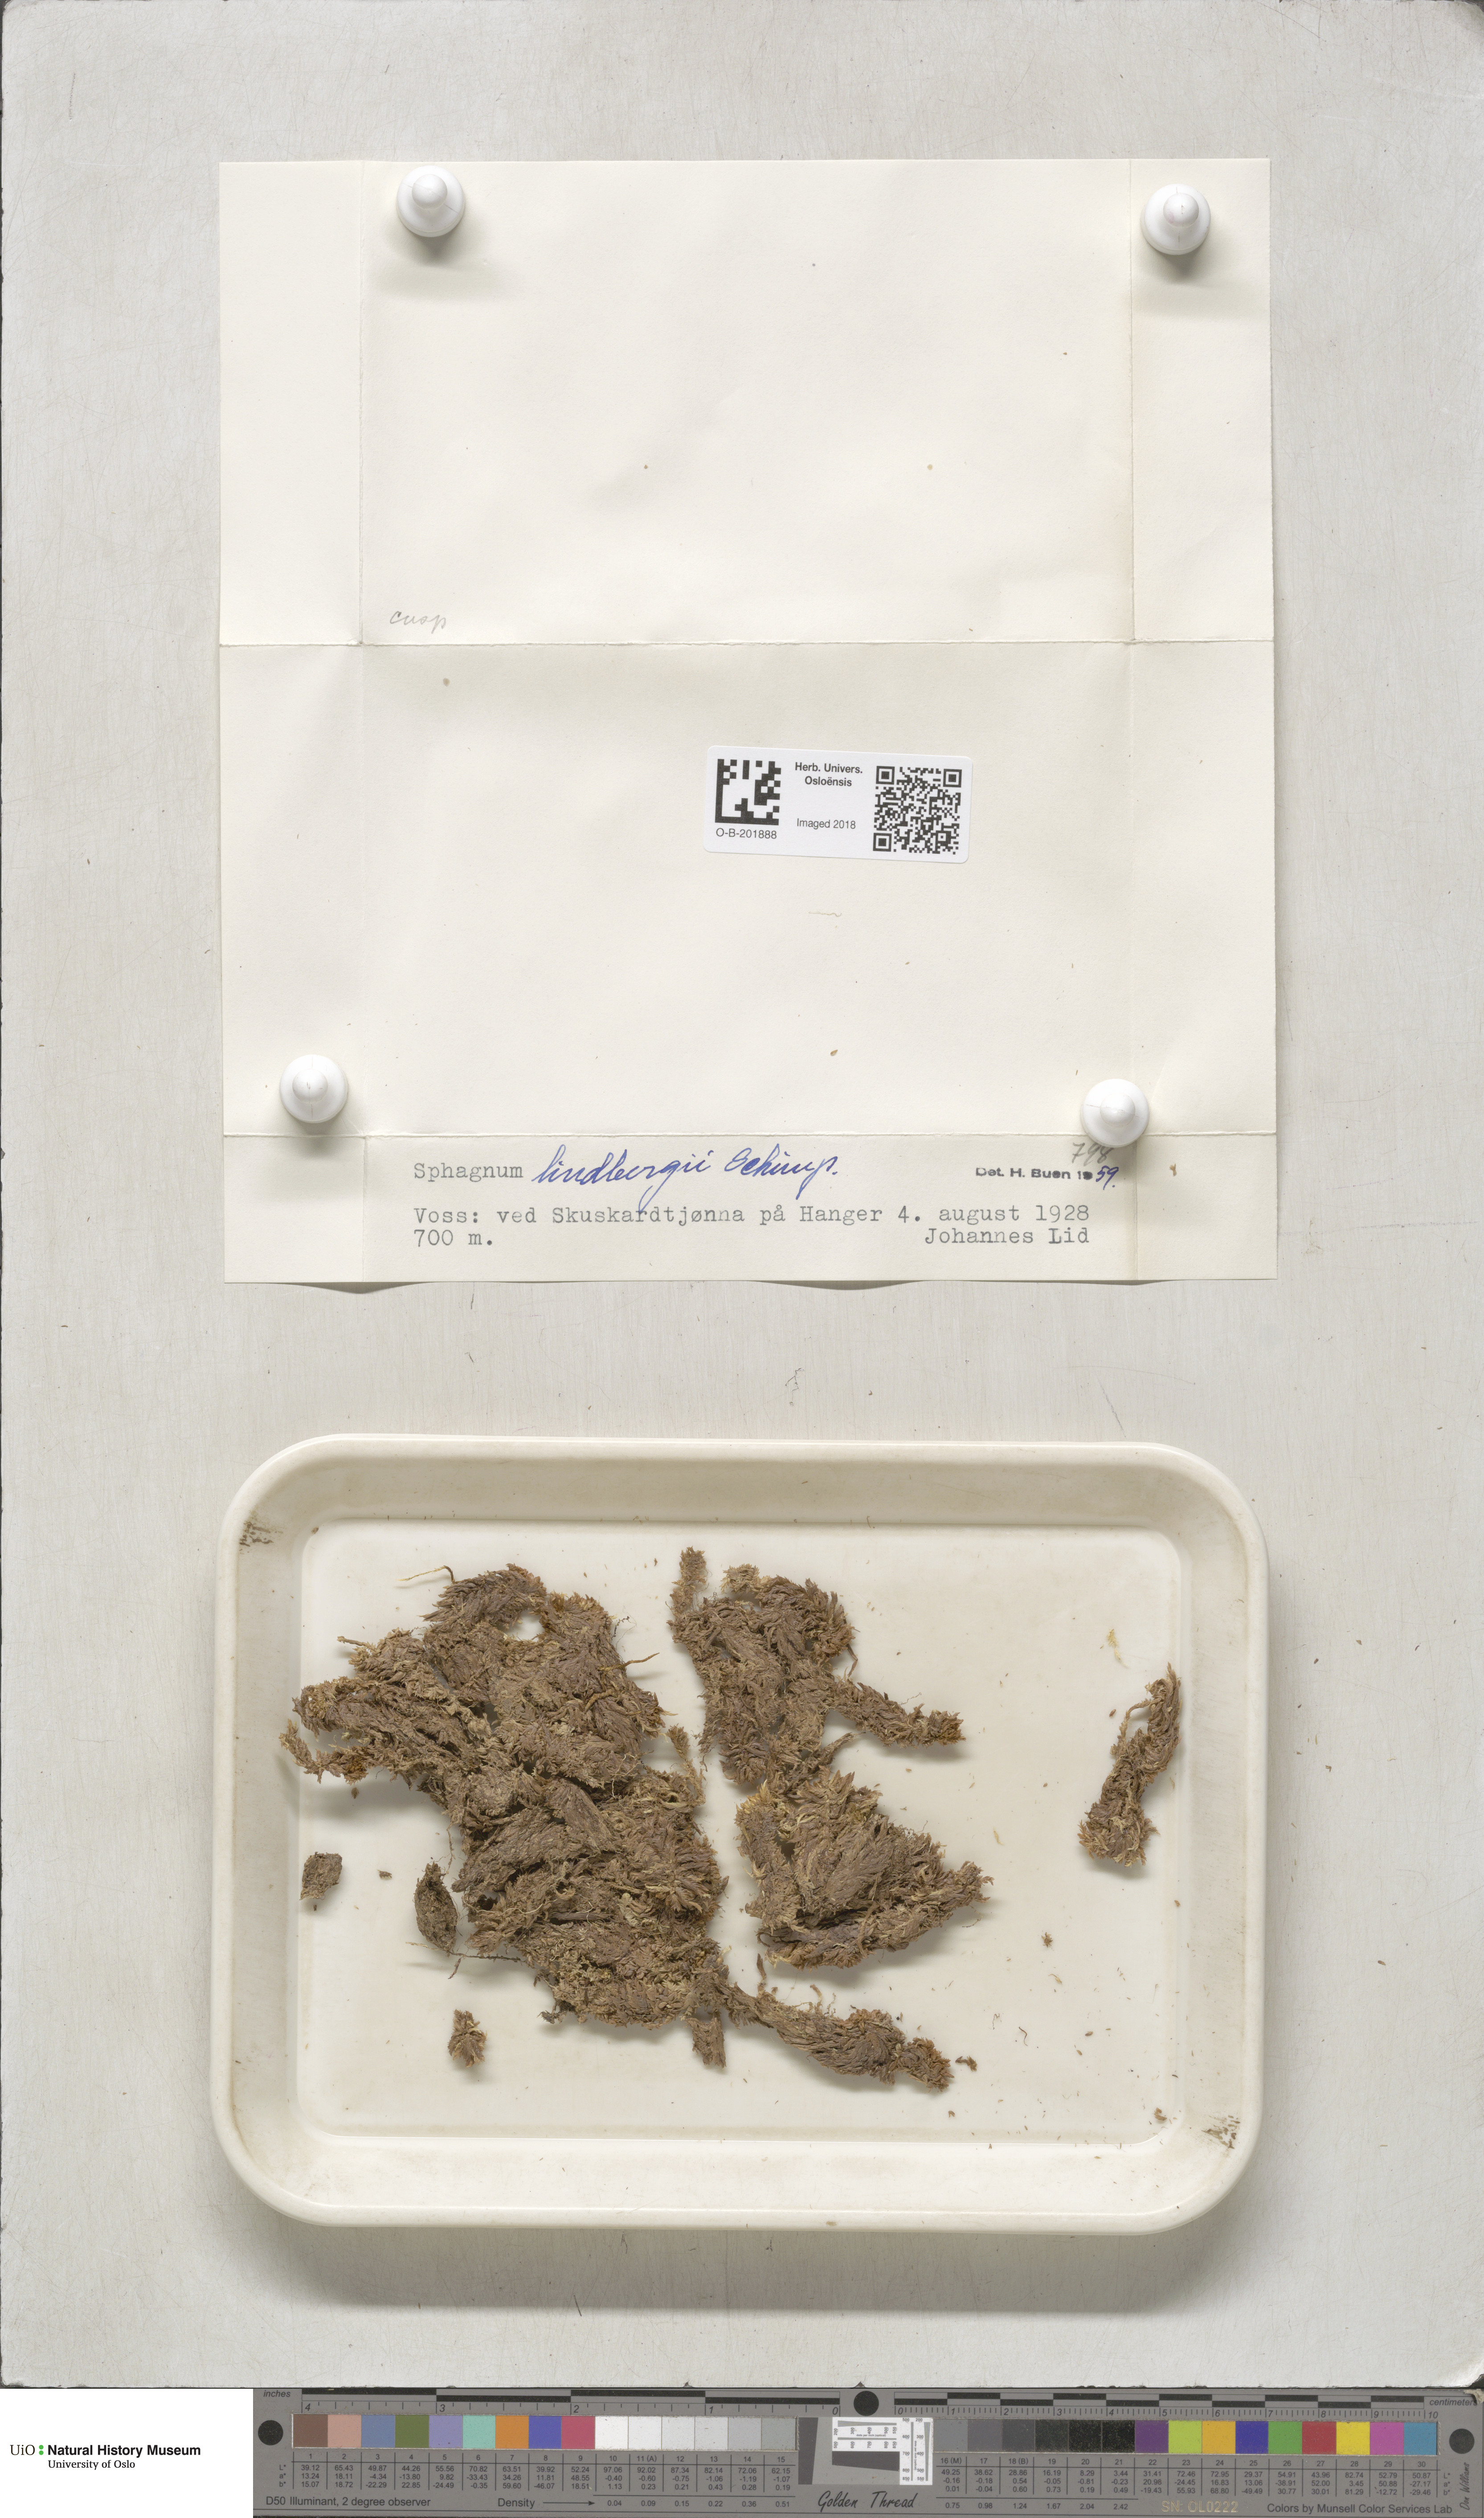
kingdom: Plantae
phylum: Bryophyta
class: Sphagnopsida
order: Sphagnales
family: Sphagnaceae
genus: Sphagnum
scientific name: Sphagnum lindbergii
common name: Lindberg's peat moss
